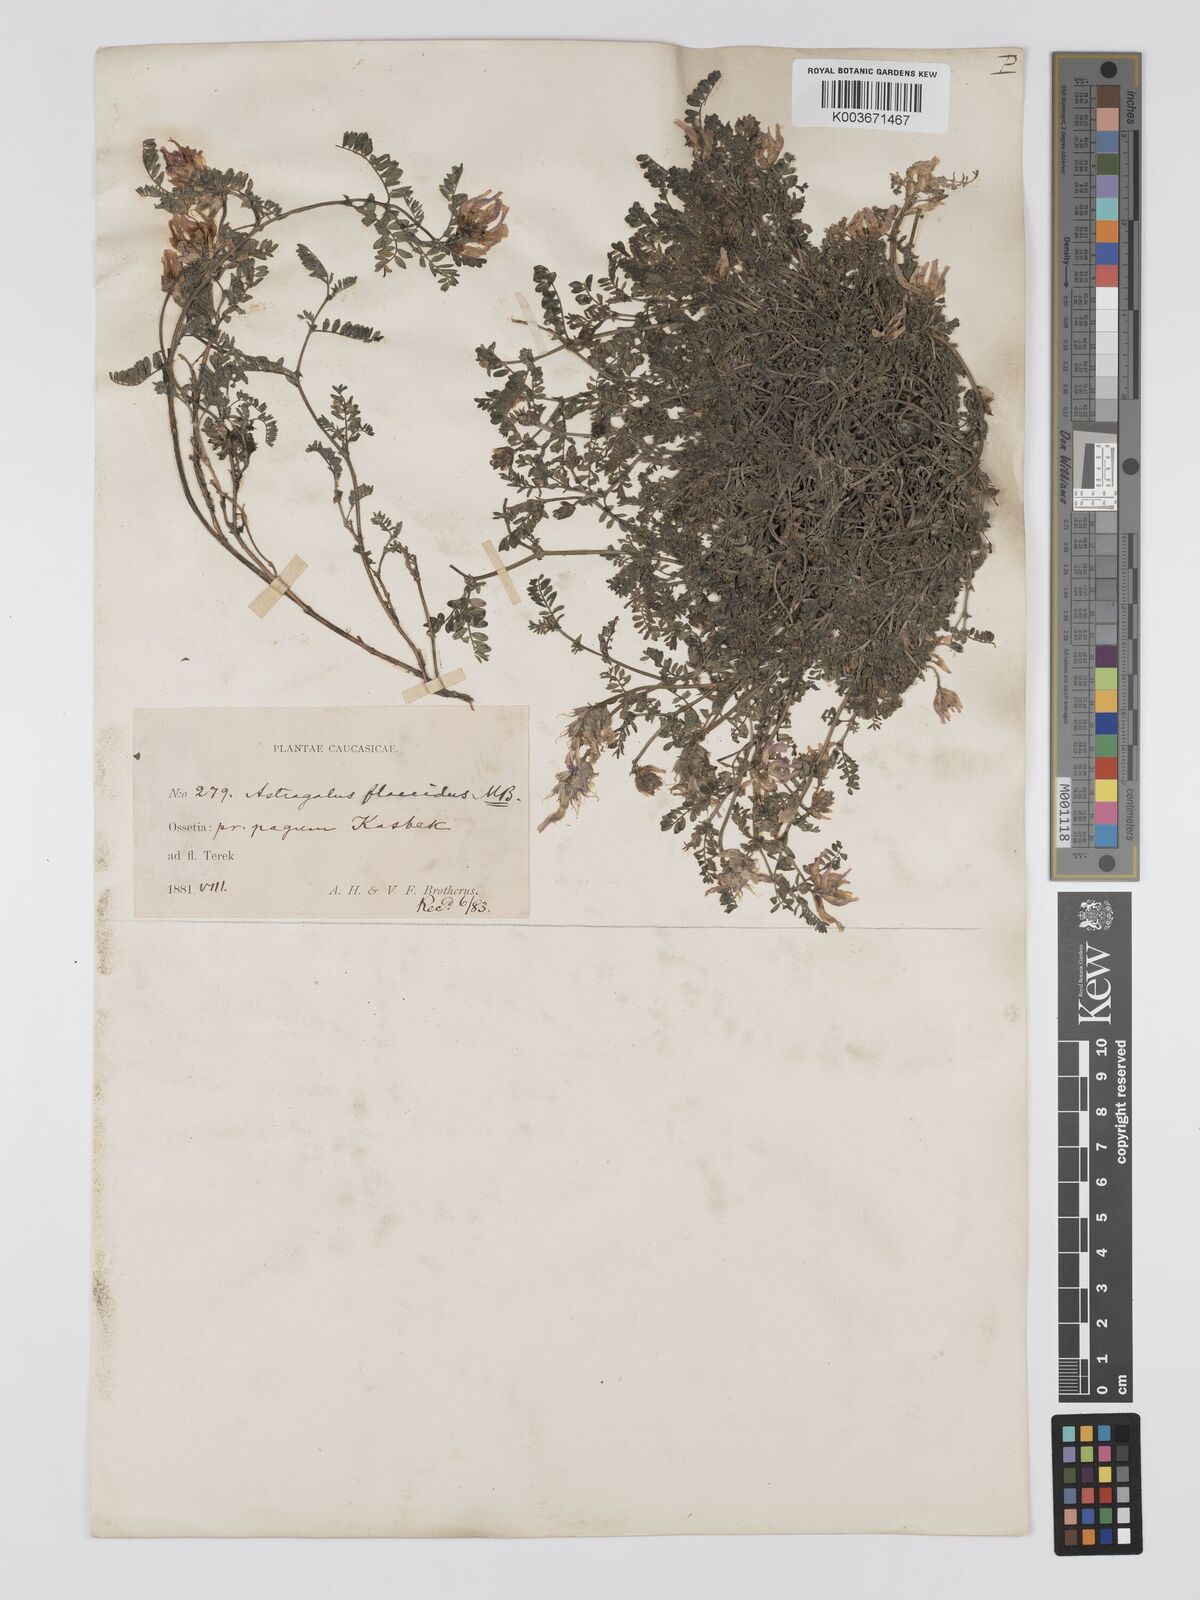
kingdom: Plantae
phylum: Tracheophyta
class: Magnoliopsida
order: Fabales
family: Fabaceae
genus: Astragalus
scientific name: Astragalus humifusus
